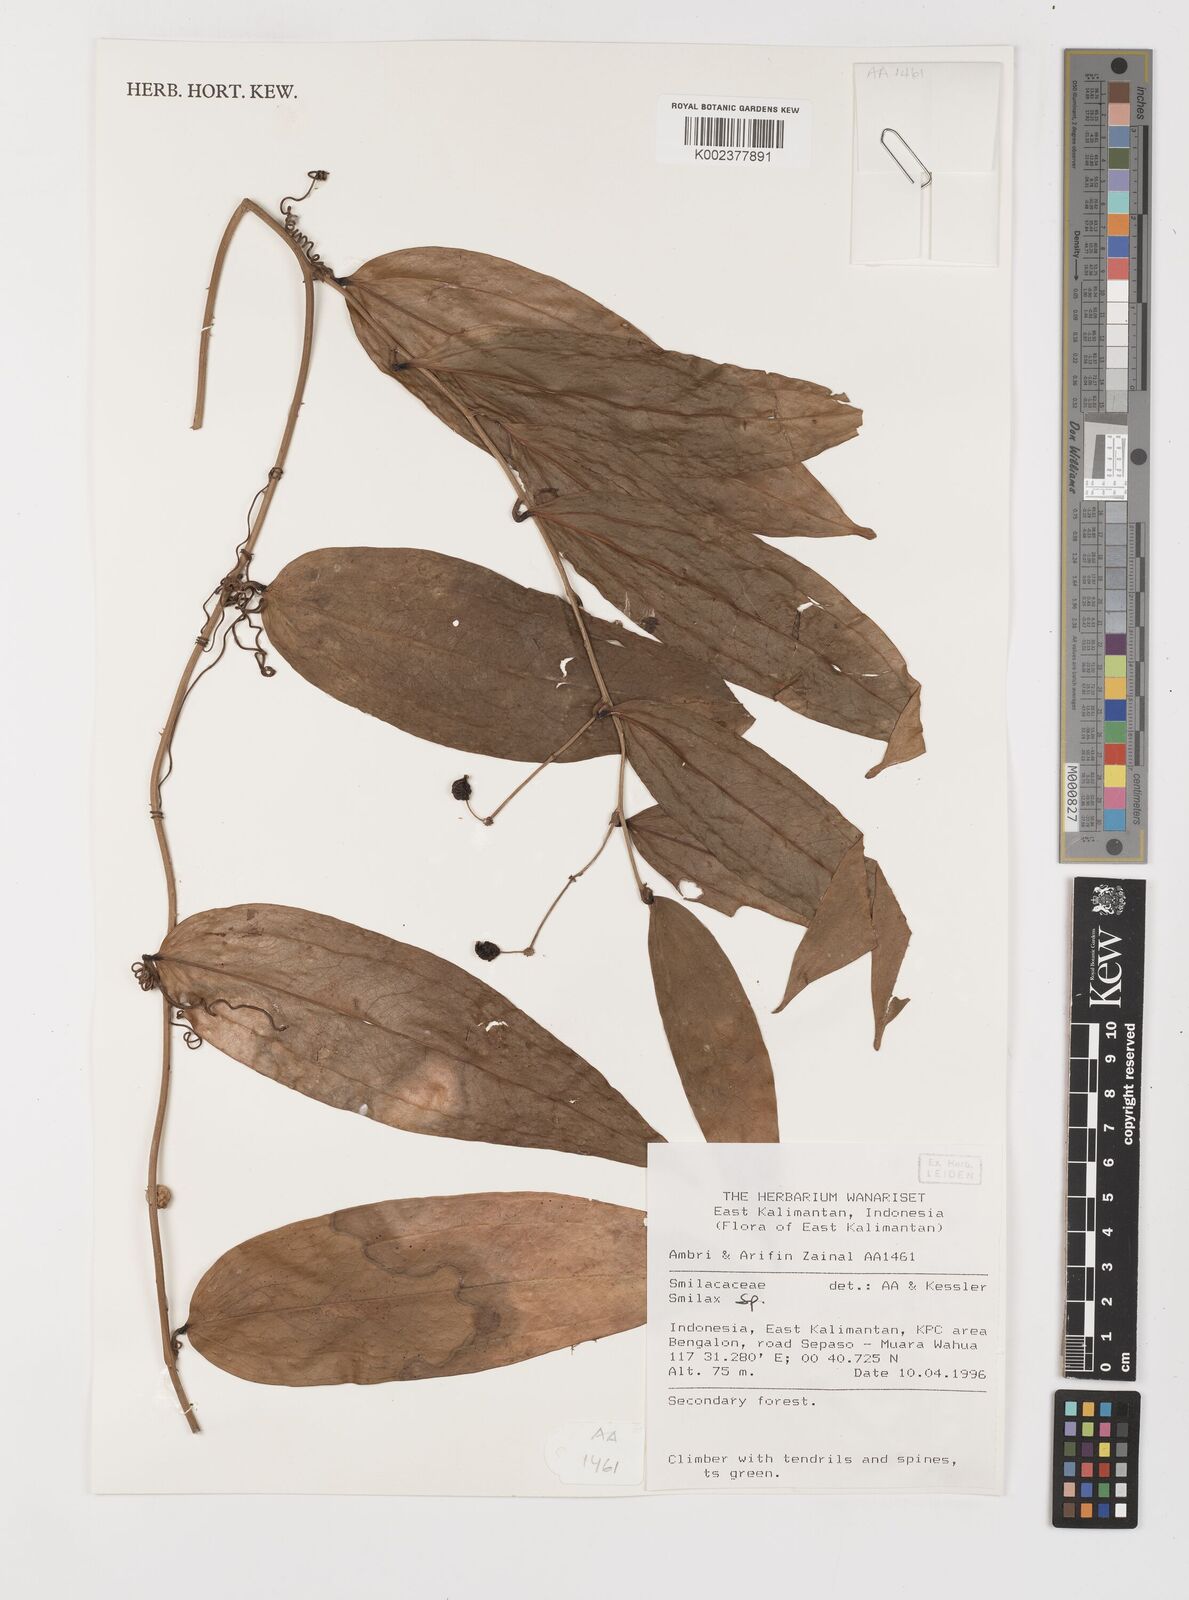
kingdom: Plantae
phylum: Tracheophyta
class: Liliopsida
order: Liliales
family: Smilacaceae
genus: Smilax
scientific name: Smilax
